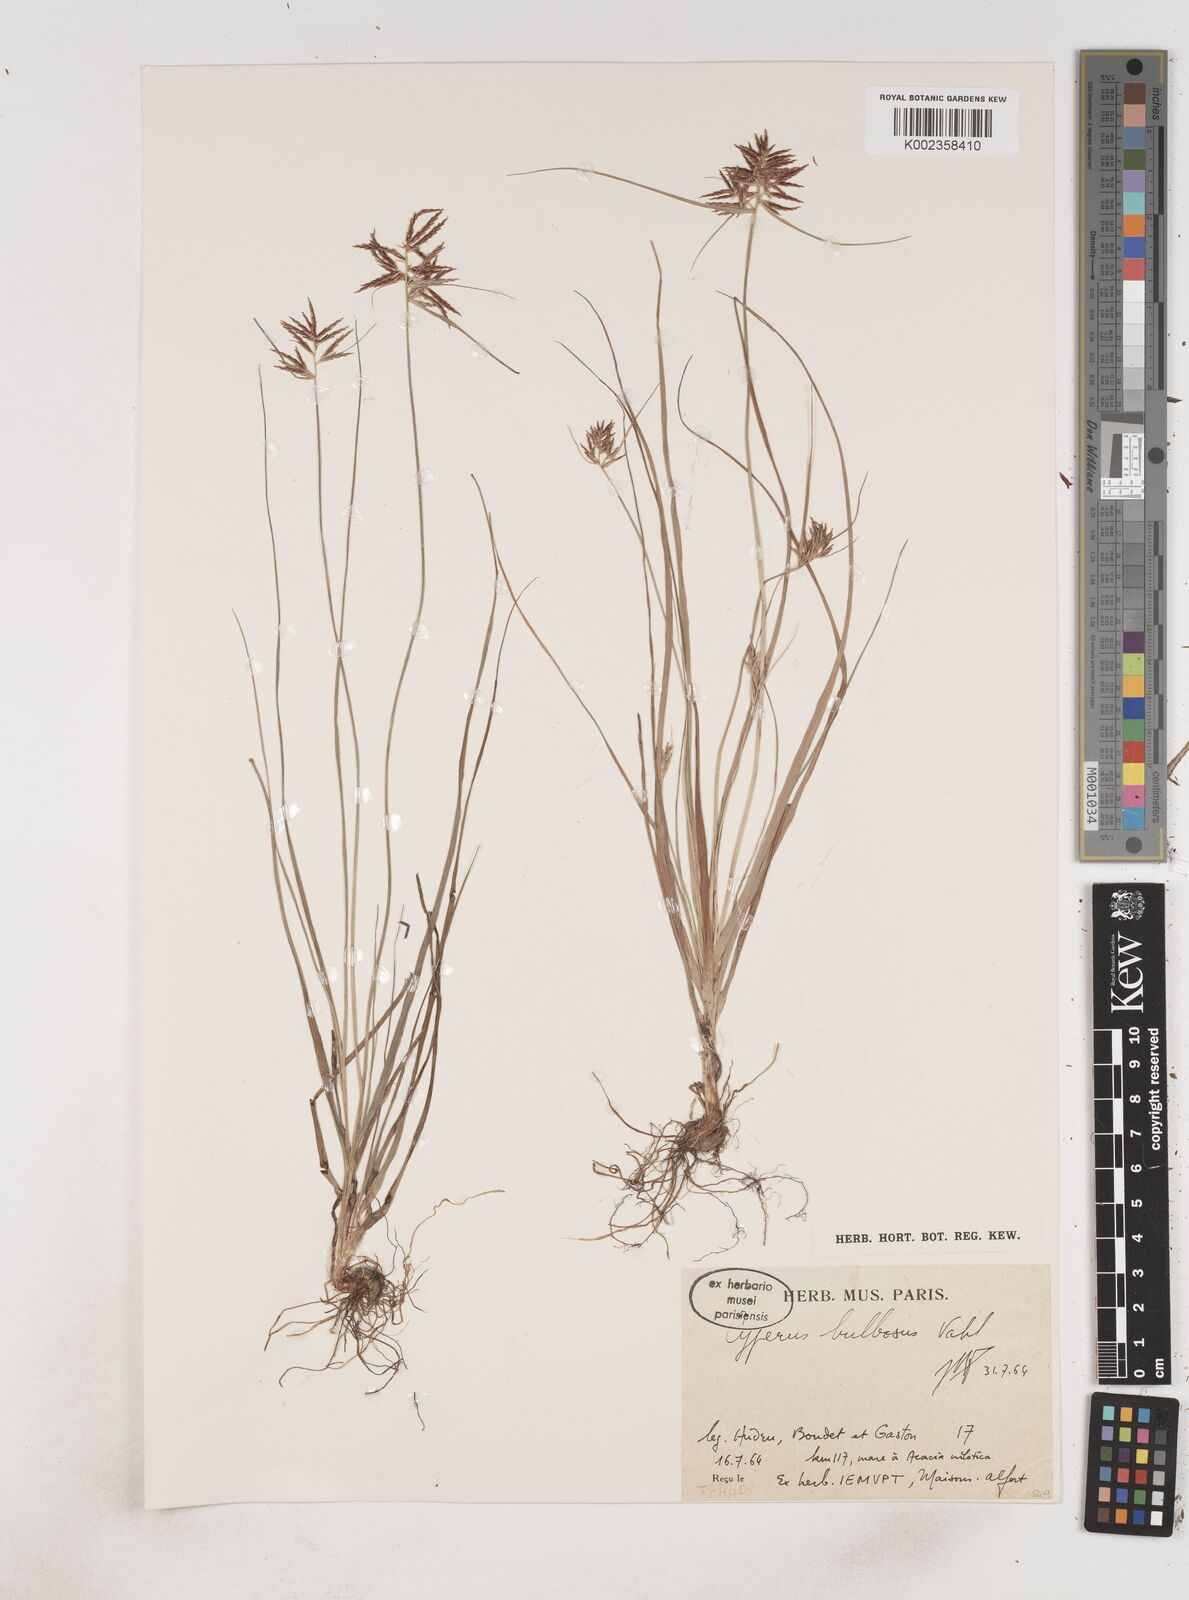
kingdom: Plantae
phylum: Tracheophyta
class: Liliopsida
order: Poales
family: Cyperaceae
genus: Cyperus
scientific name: Cyperus bulbosus
